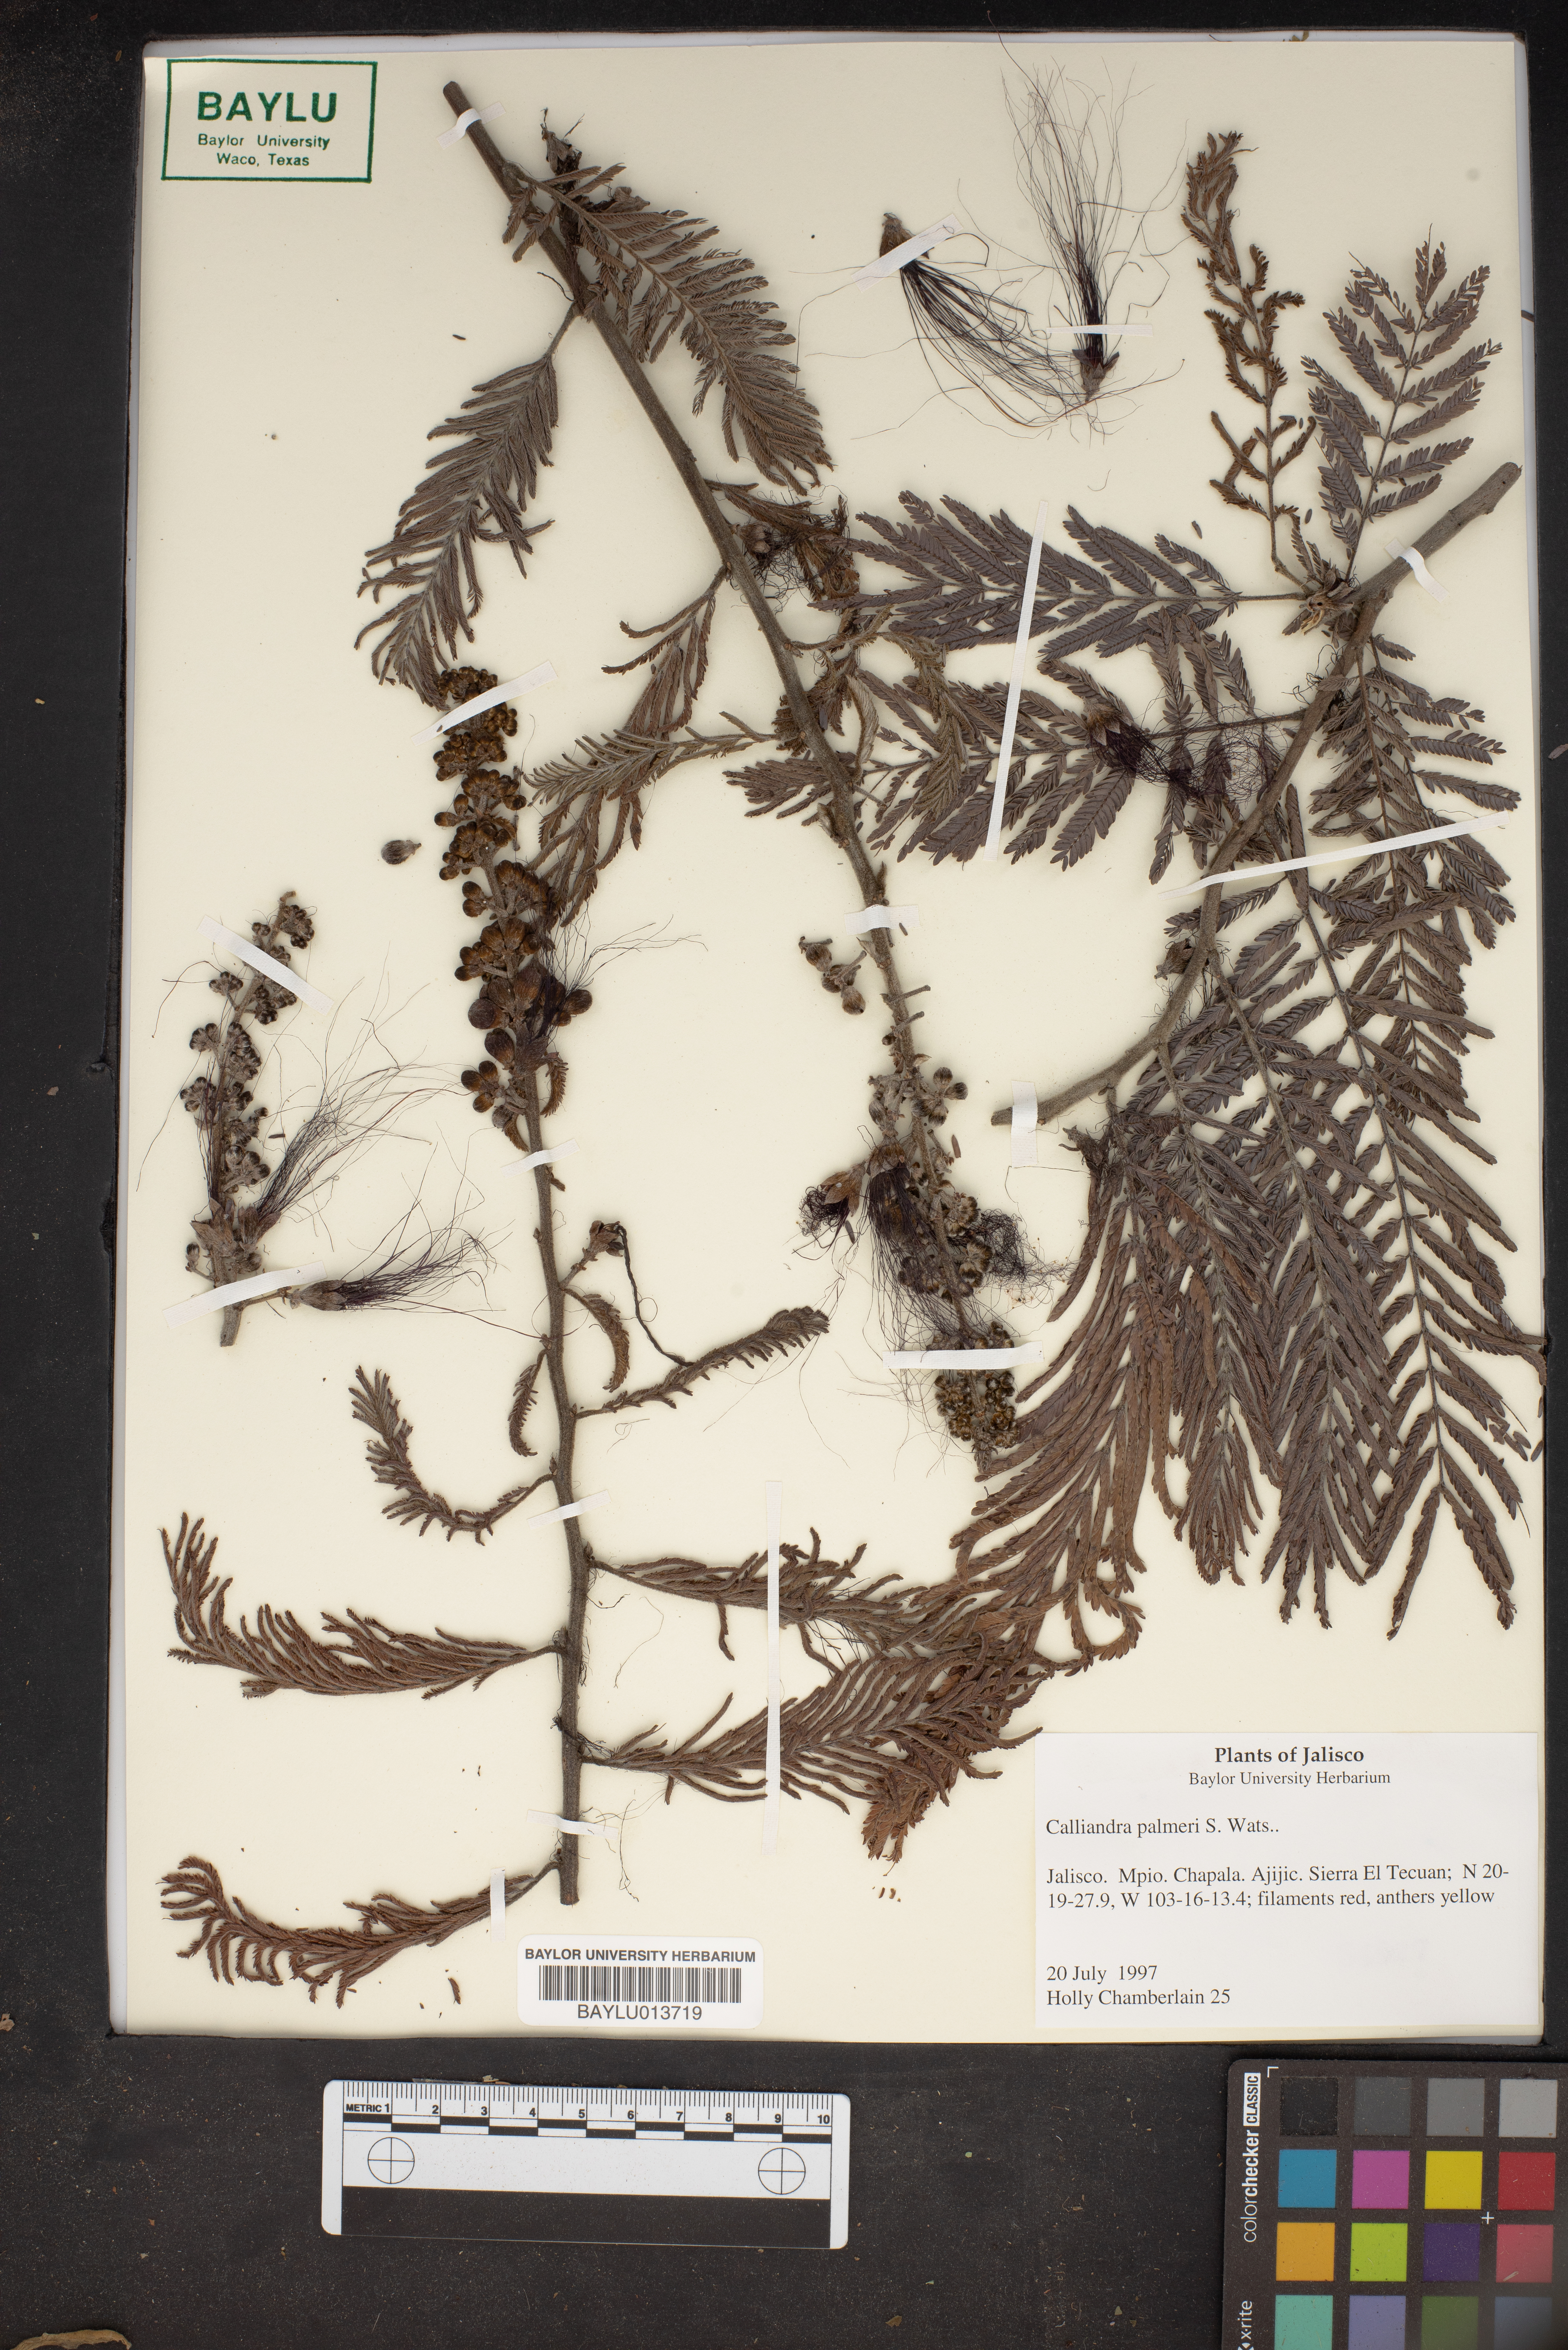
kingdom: Plantae
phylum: Tracheophyta
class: Magnoliopsida
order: Fabales
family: Fabaceae
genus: Calliandra
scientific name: Calliandra palmeri
